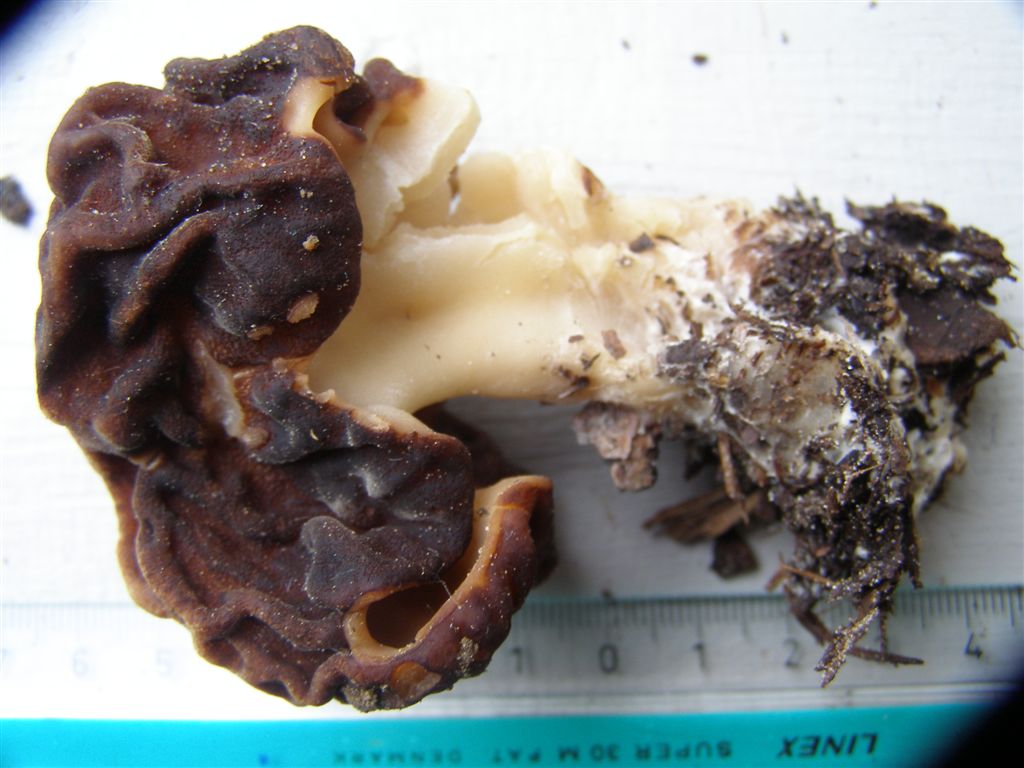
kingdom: Fungi
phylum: Ascomycota
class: Pezizomycetes
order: Pezizales
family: Discinaceae
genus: Gyromitra
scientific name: Gyromitra esculenta
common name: ægte stenmorkel
